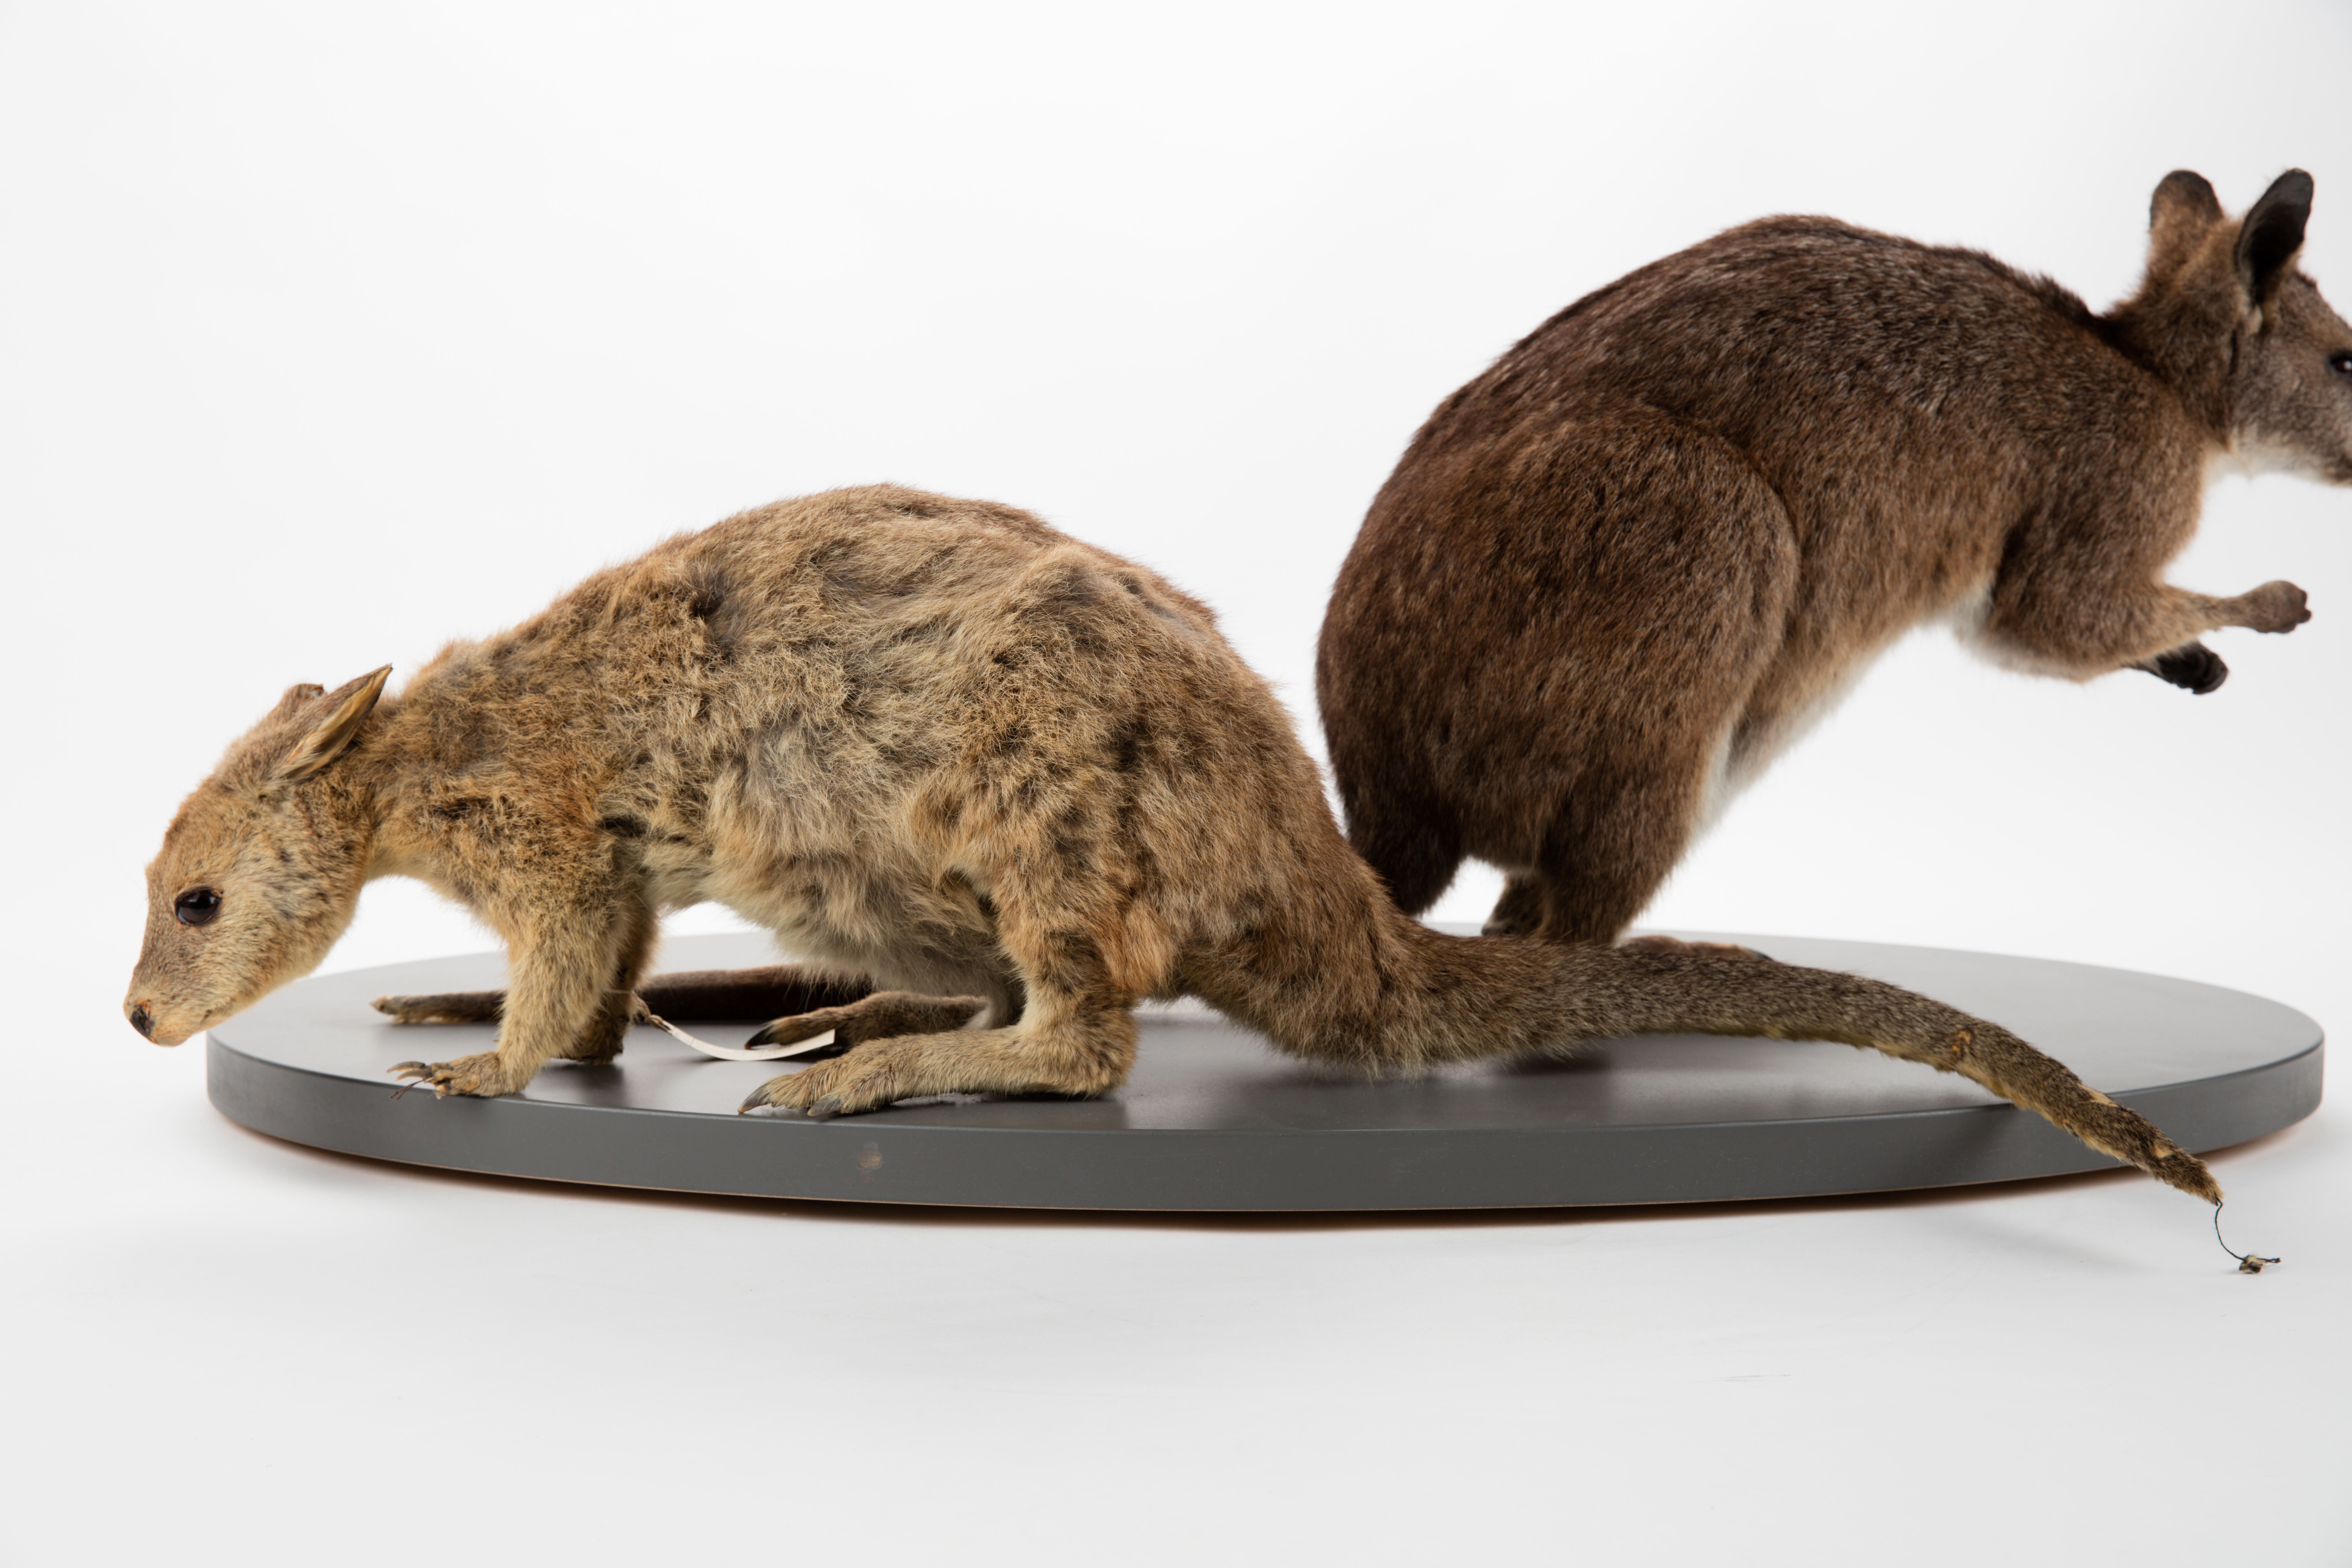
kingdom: Animalia
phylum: Chordata
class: Mammalia
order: Diprotodontia
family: Macropodidae
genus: Macropus
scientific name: Macropus eugenii
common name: Tammar wallaby
